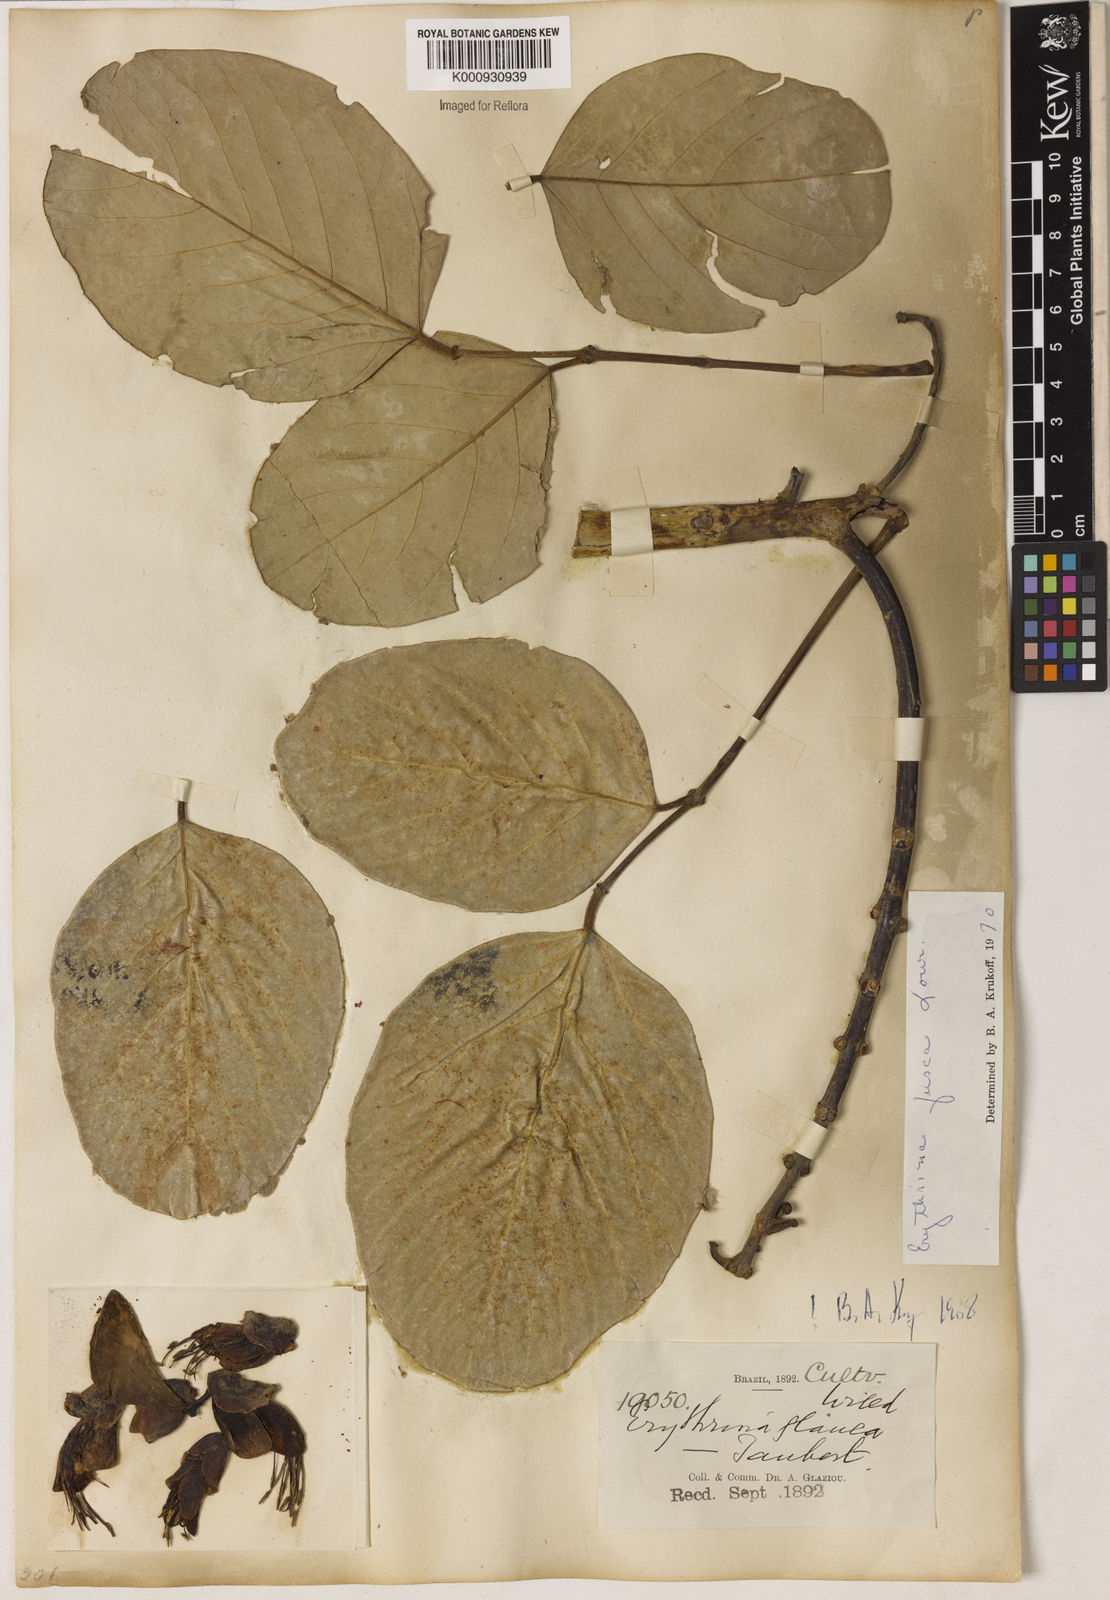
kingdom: Plantae
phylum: Tracheophyta
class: Magnoliopsida
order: Fabales
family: Fabaceae
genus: Erythrina
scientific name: Erythrina fusca
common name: Coral-bean
